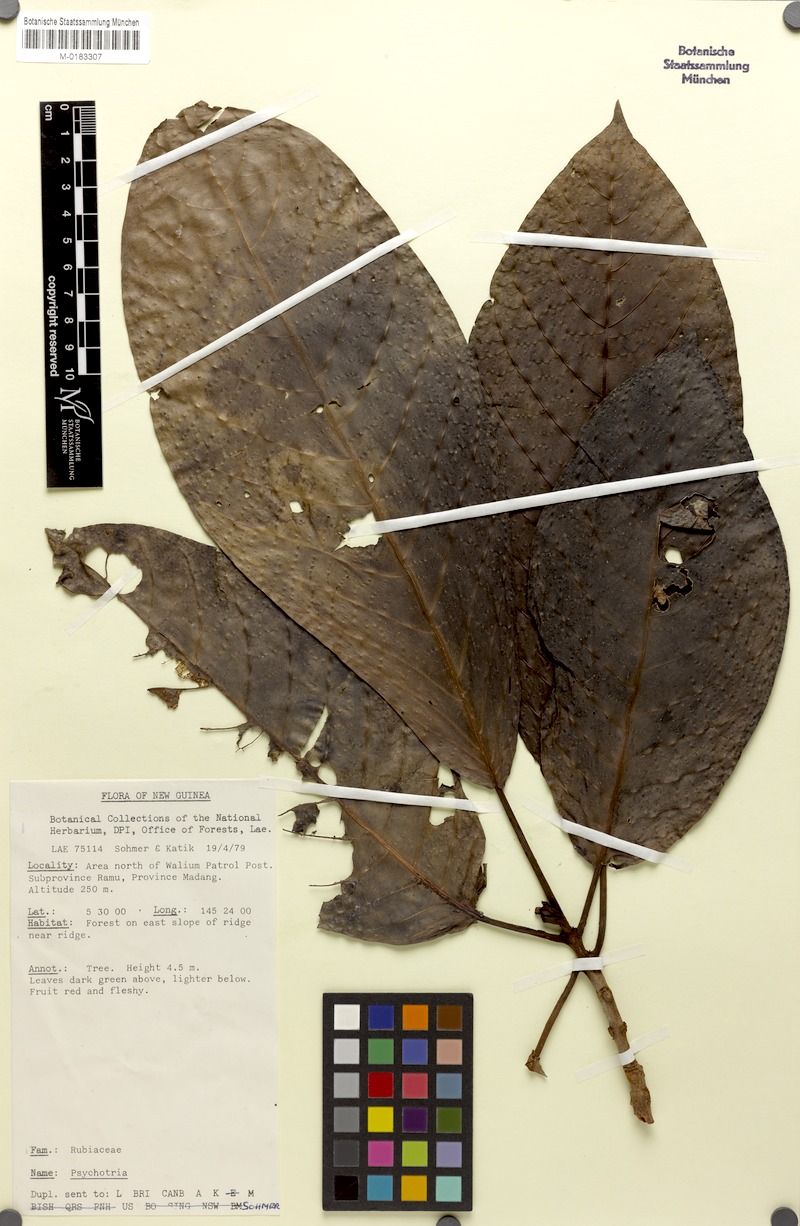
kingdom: Plantae
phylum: Tracheophyta
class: Magnoliopsida
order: Gentianales
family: Rubiaceae
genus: Psychotria
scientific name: Psychotria ramuensis
